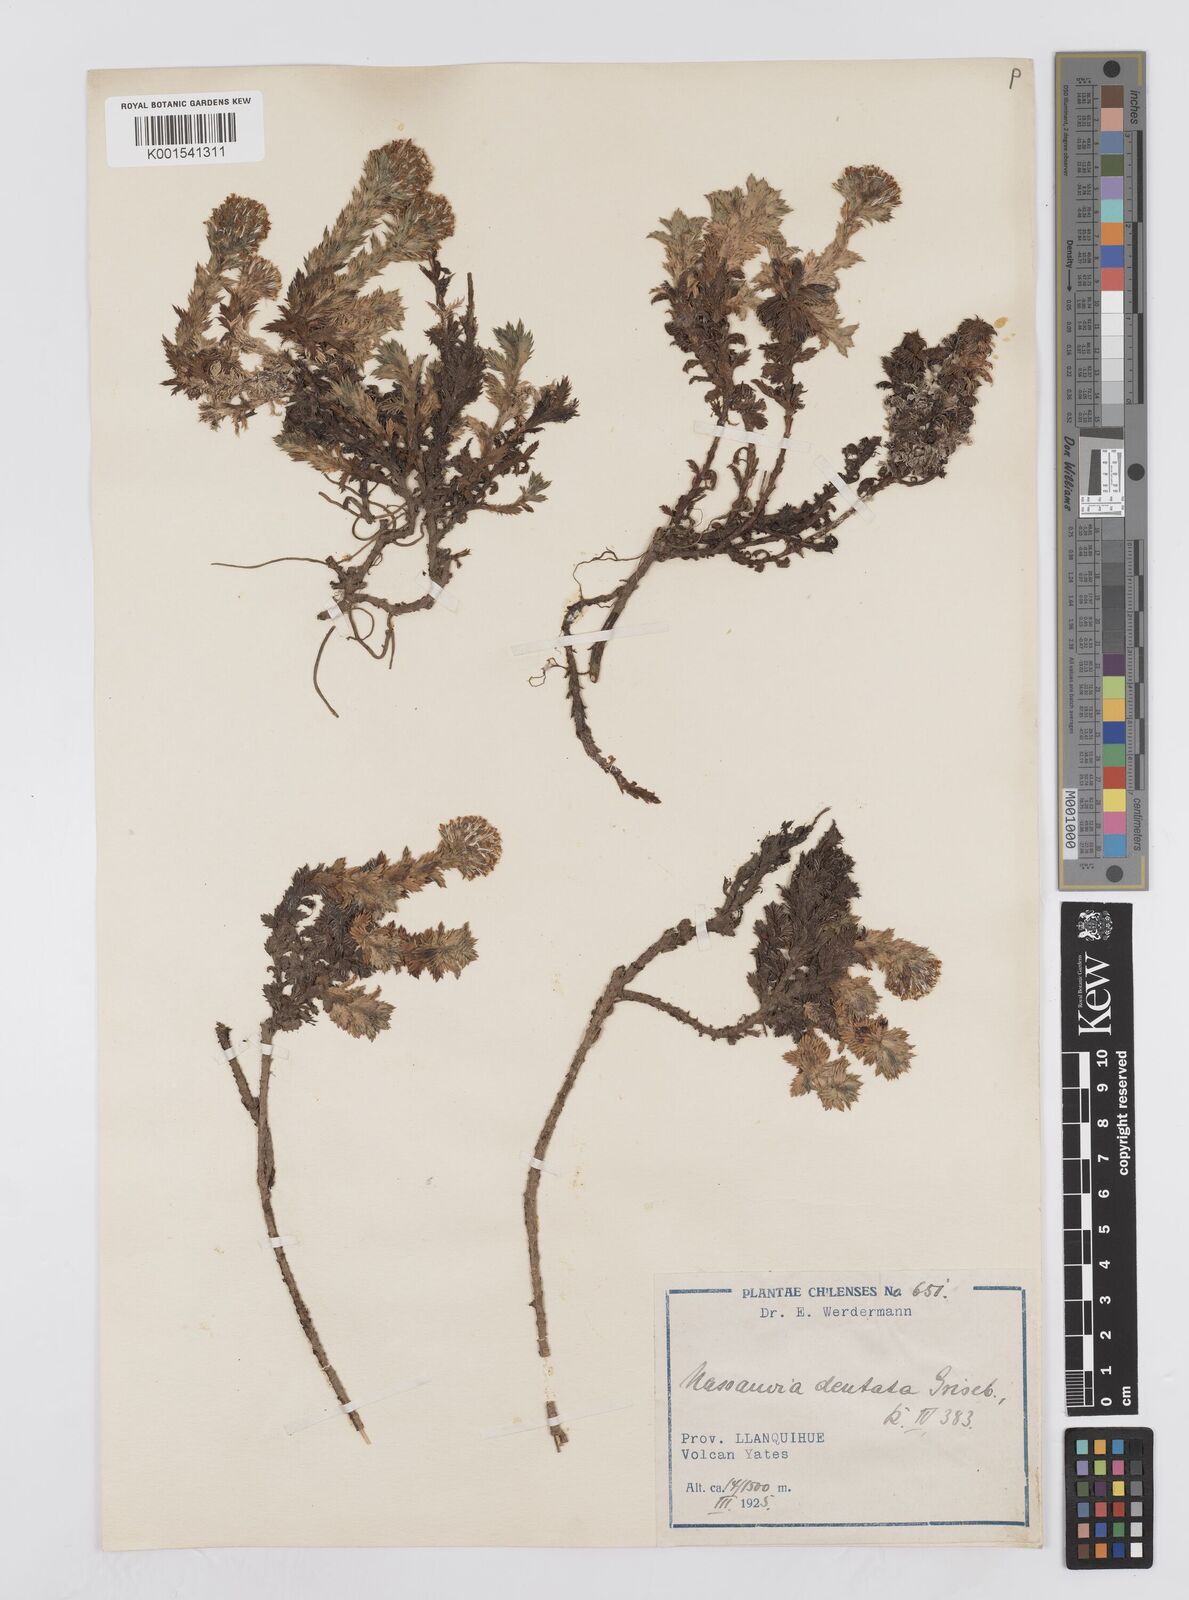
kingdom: Plantae
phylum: Tracheophyta
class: Magnoliopsida
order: Asterales
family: Asteraceae
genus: Nassauvia
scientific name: Nassauvia dentata
